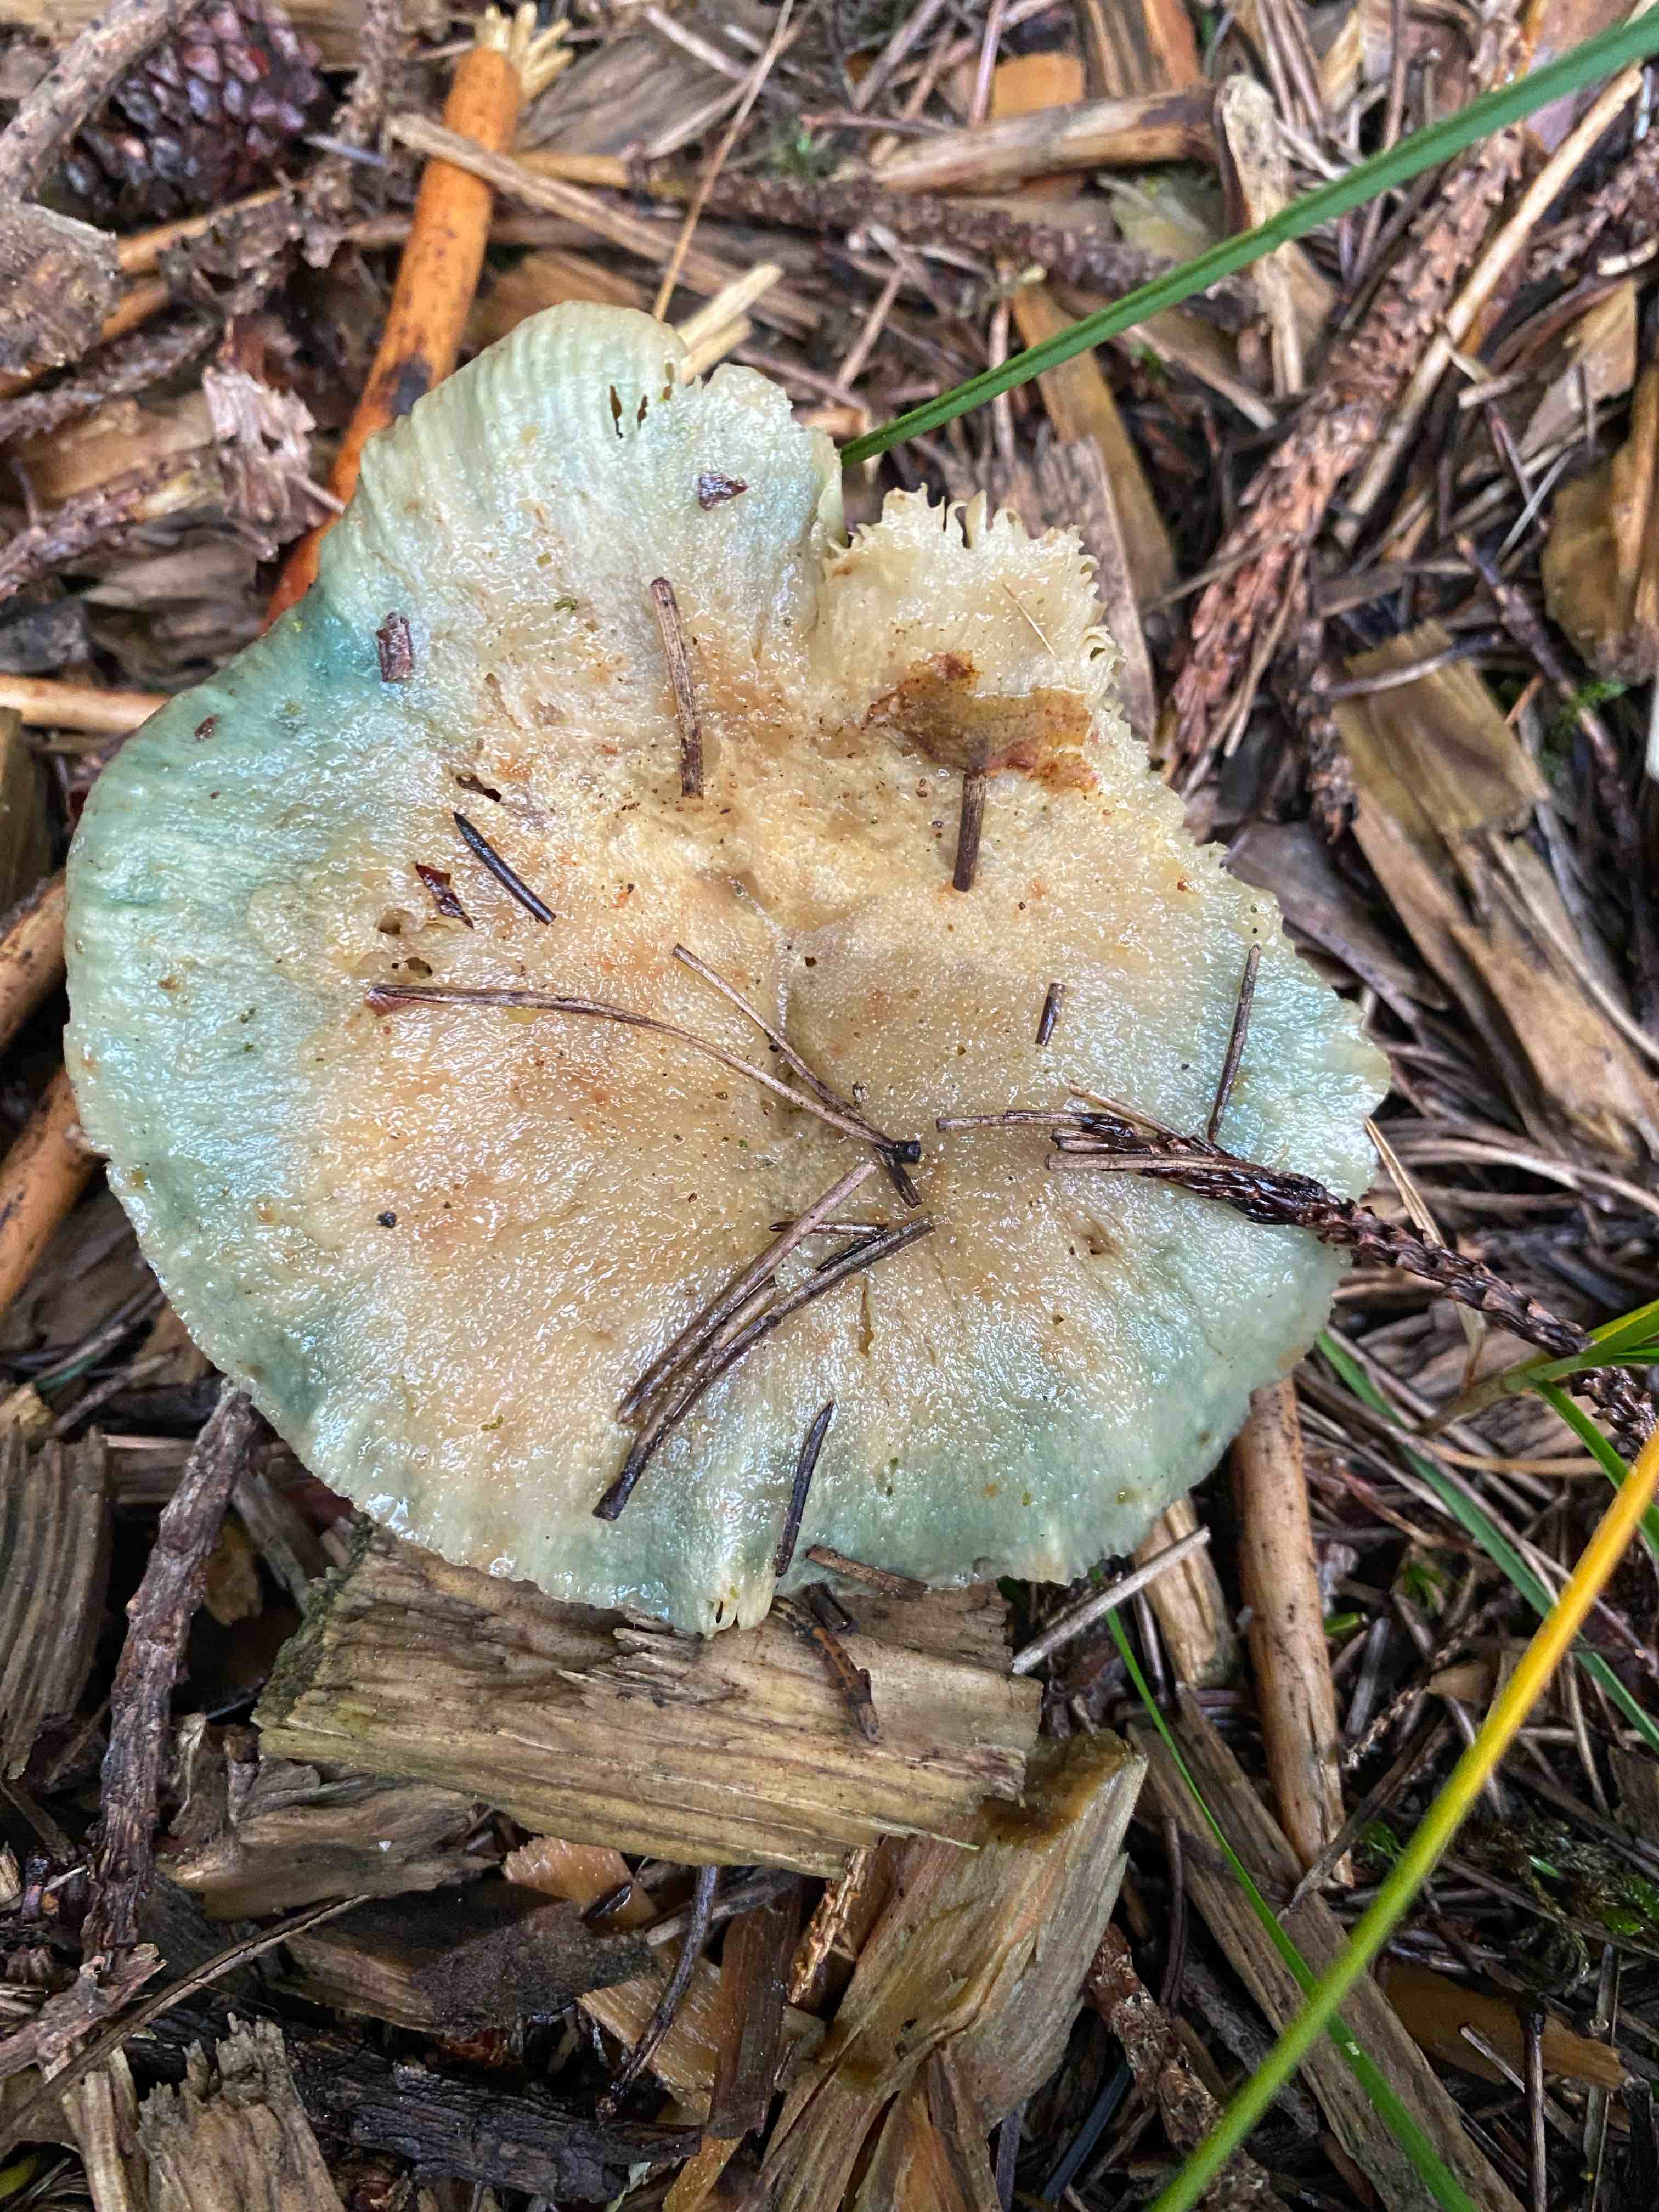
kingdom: Fungi
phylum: Basidiomycota
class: Agaricomycetes
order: Russulales
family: Russulaceae
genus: Lactarius
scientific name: Lactarius
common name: mælkehat
